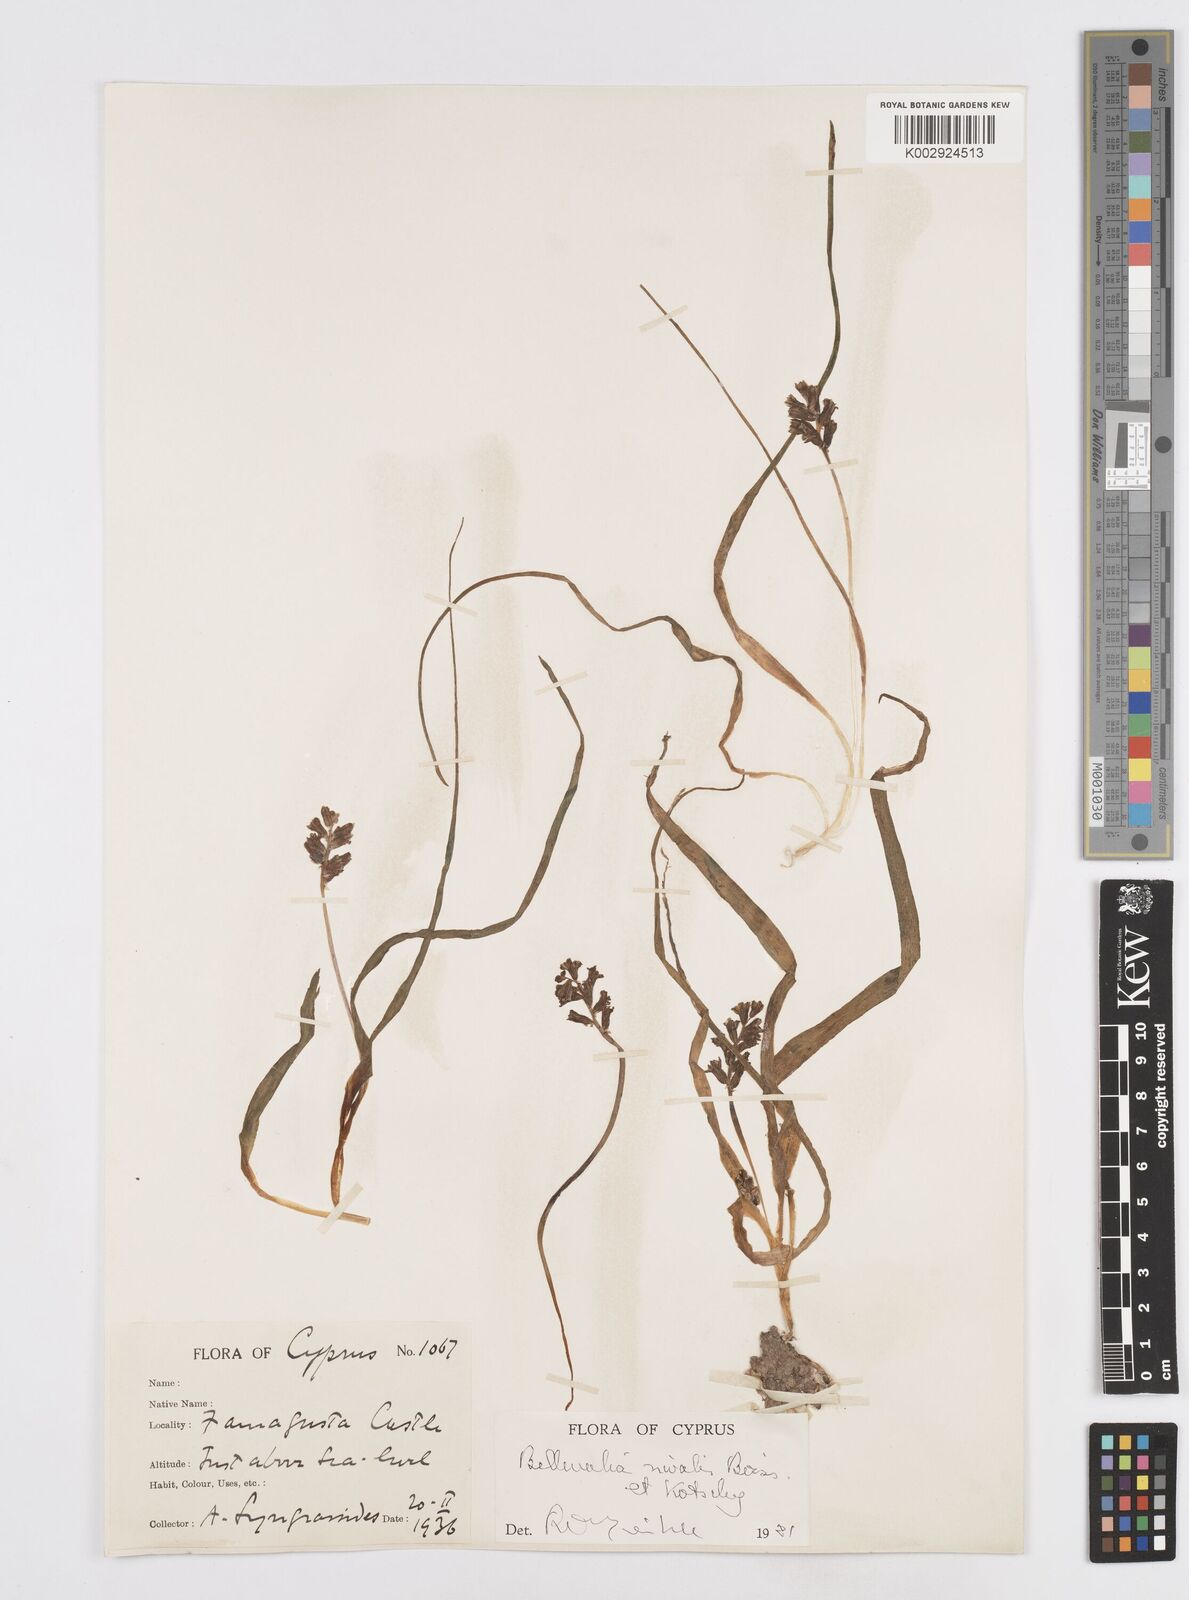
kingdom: Plantae
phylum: Tracheophyta
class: Liliopsida
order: Asparagales
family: Asparagaceae
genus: Bellevalia
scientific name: Bellevalia nivalis
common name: Snow bellevalia
